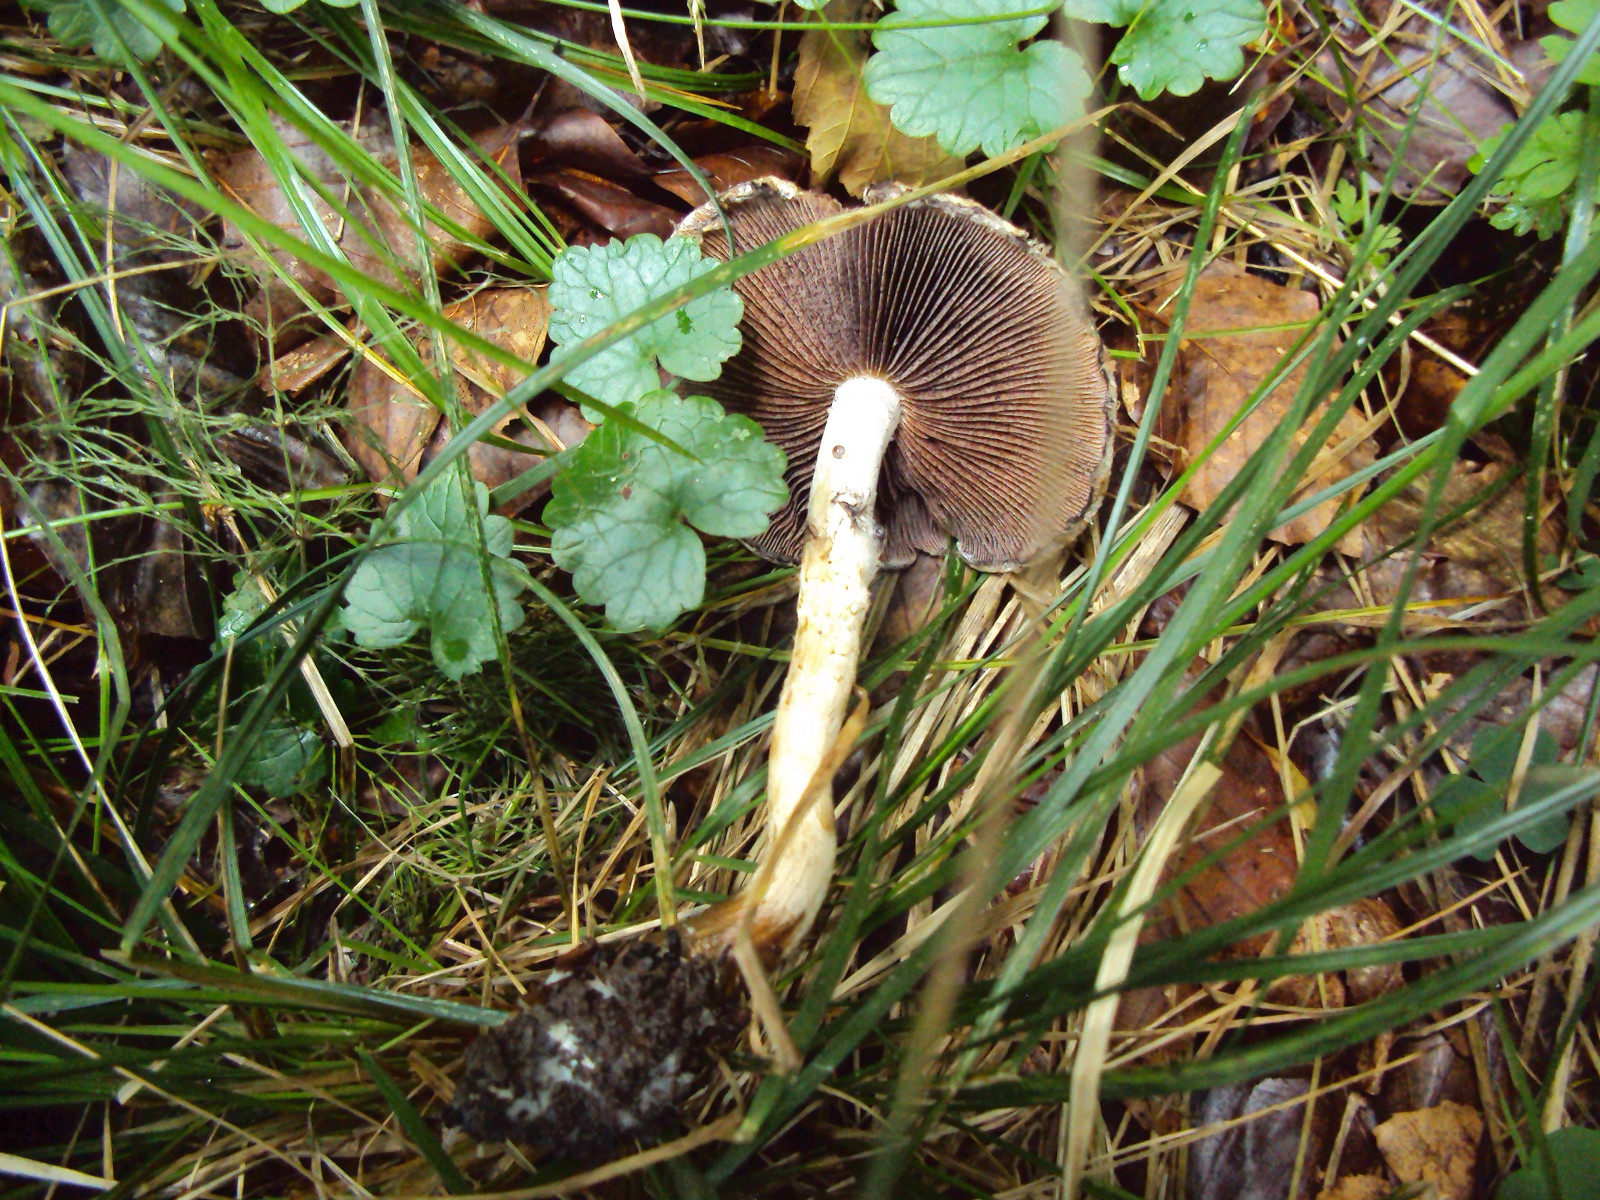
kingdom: Fungi
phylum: Basidiomycota
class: Agaricomycetes
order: Agaricales
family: Psathyrellaceae
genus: Lacrymaria
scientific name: Lacrymaria lacrymabunda
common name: grædende mørkhat
